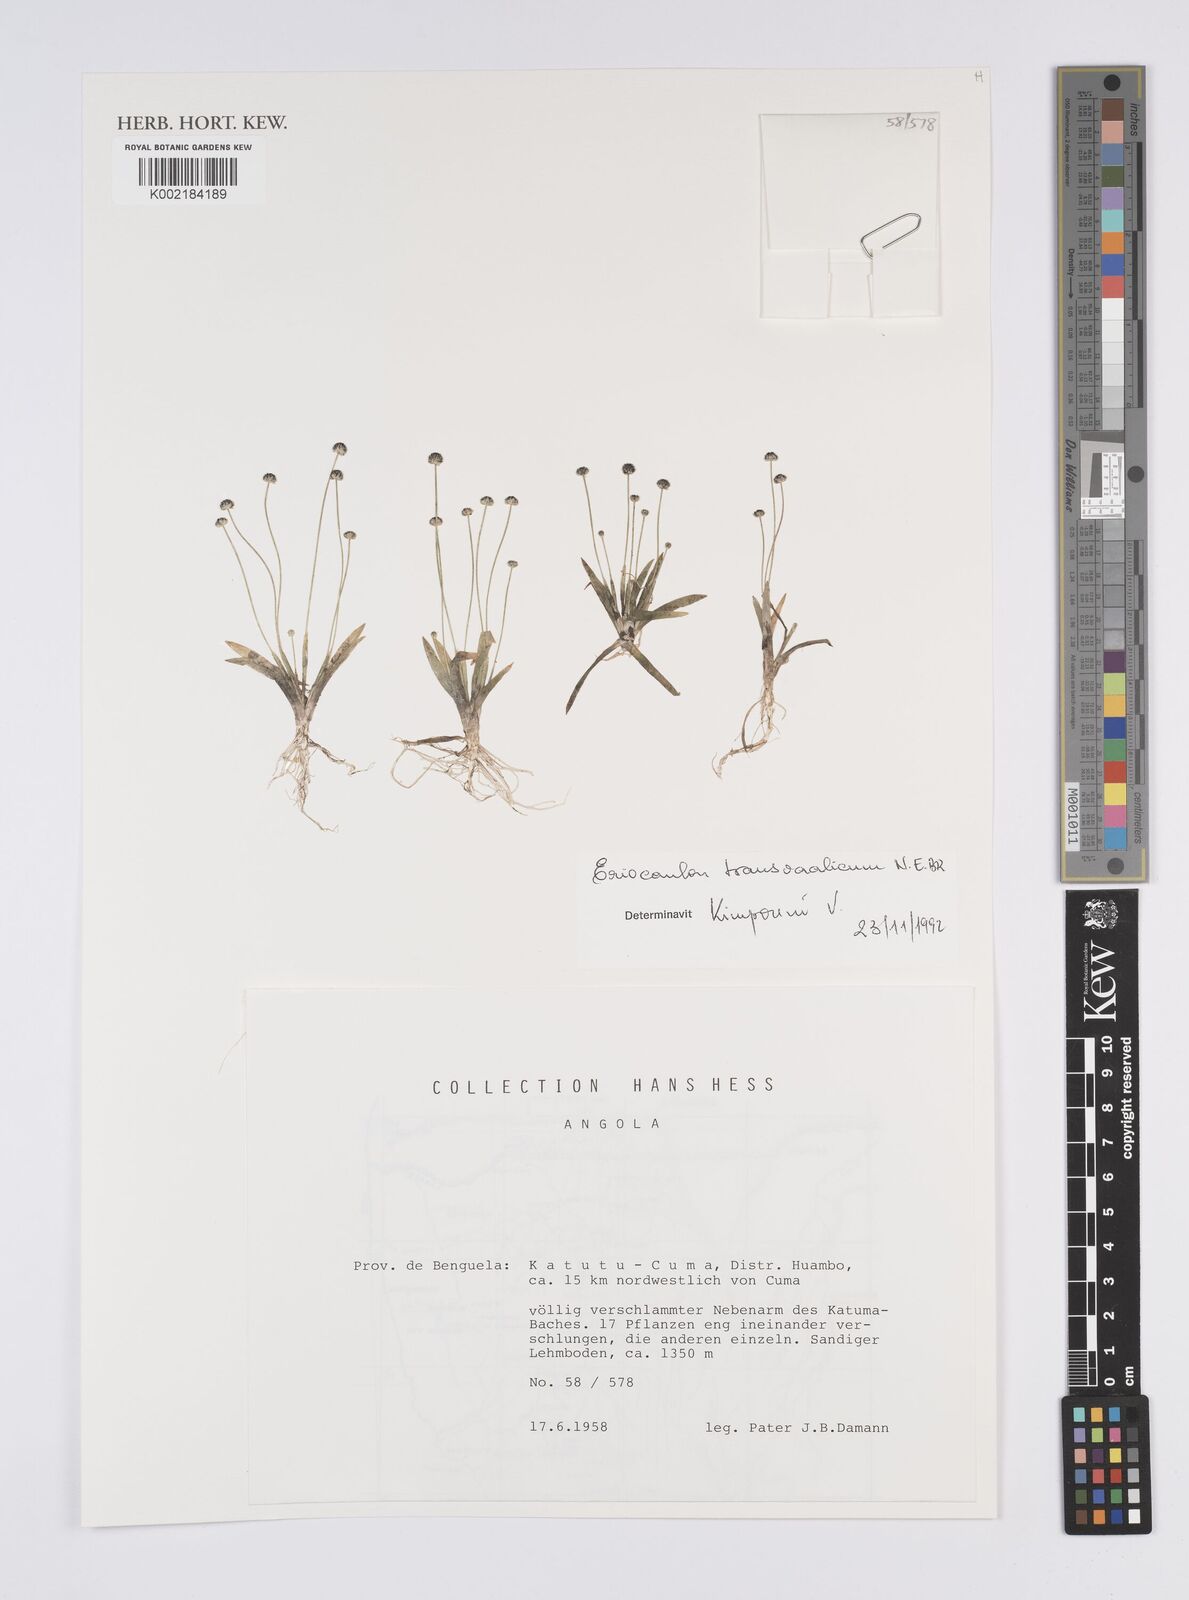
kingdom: Plantae
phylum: Tracheophyta
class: Liliopsida
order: Poales
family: Eriocaulaceae
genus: Eriocaulon
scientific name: Eriocaulon transvaalicum
